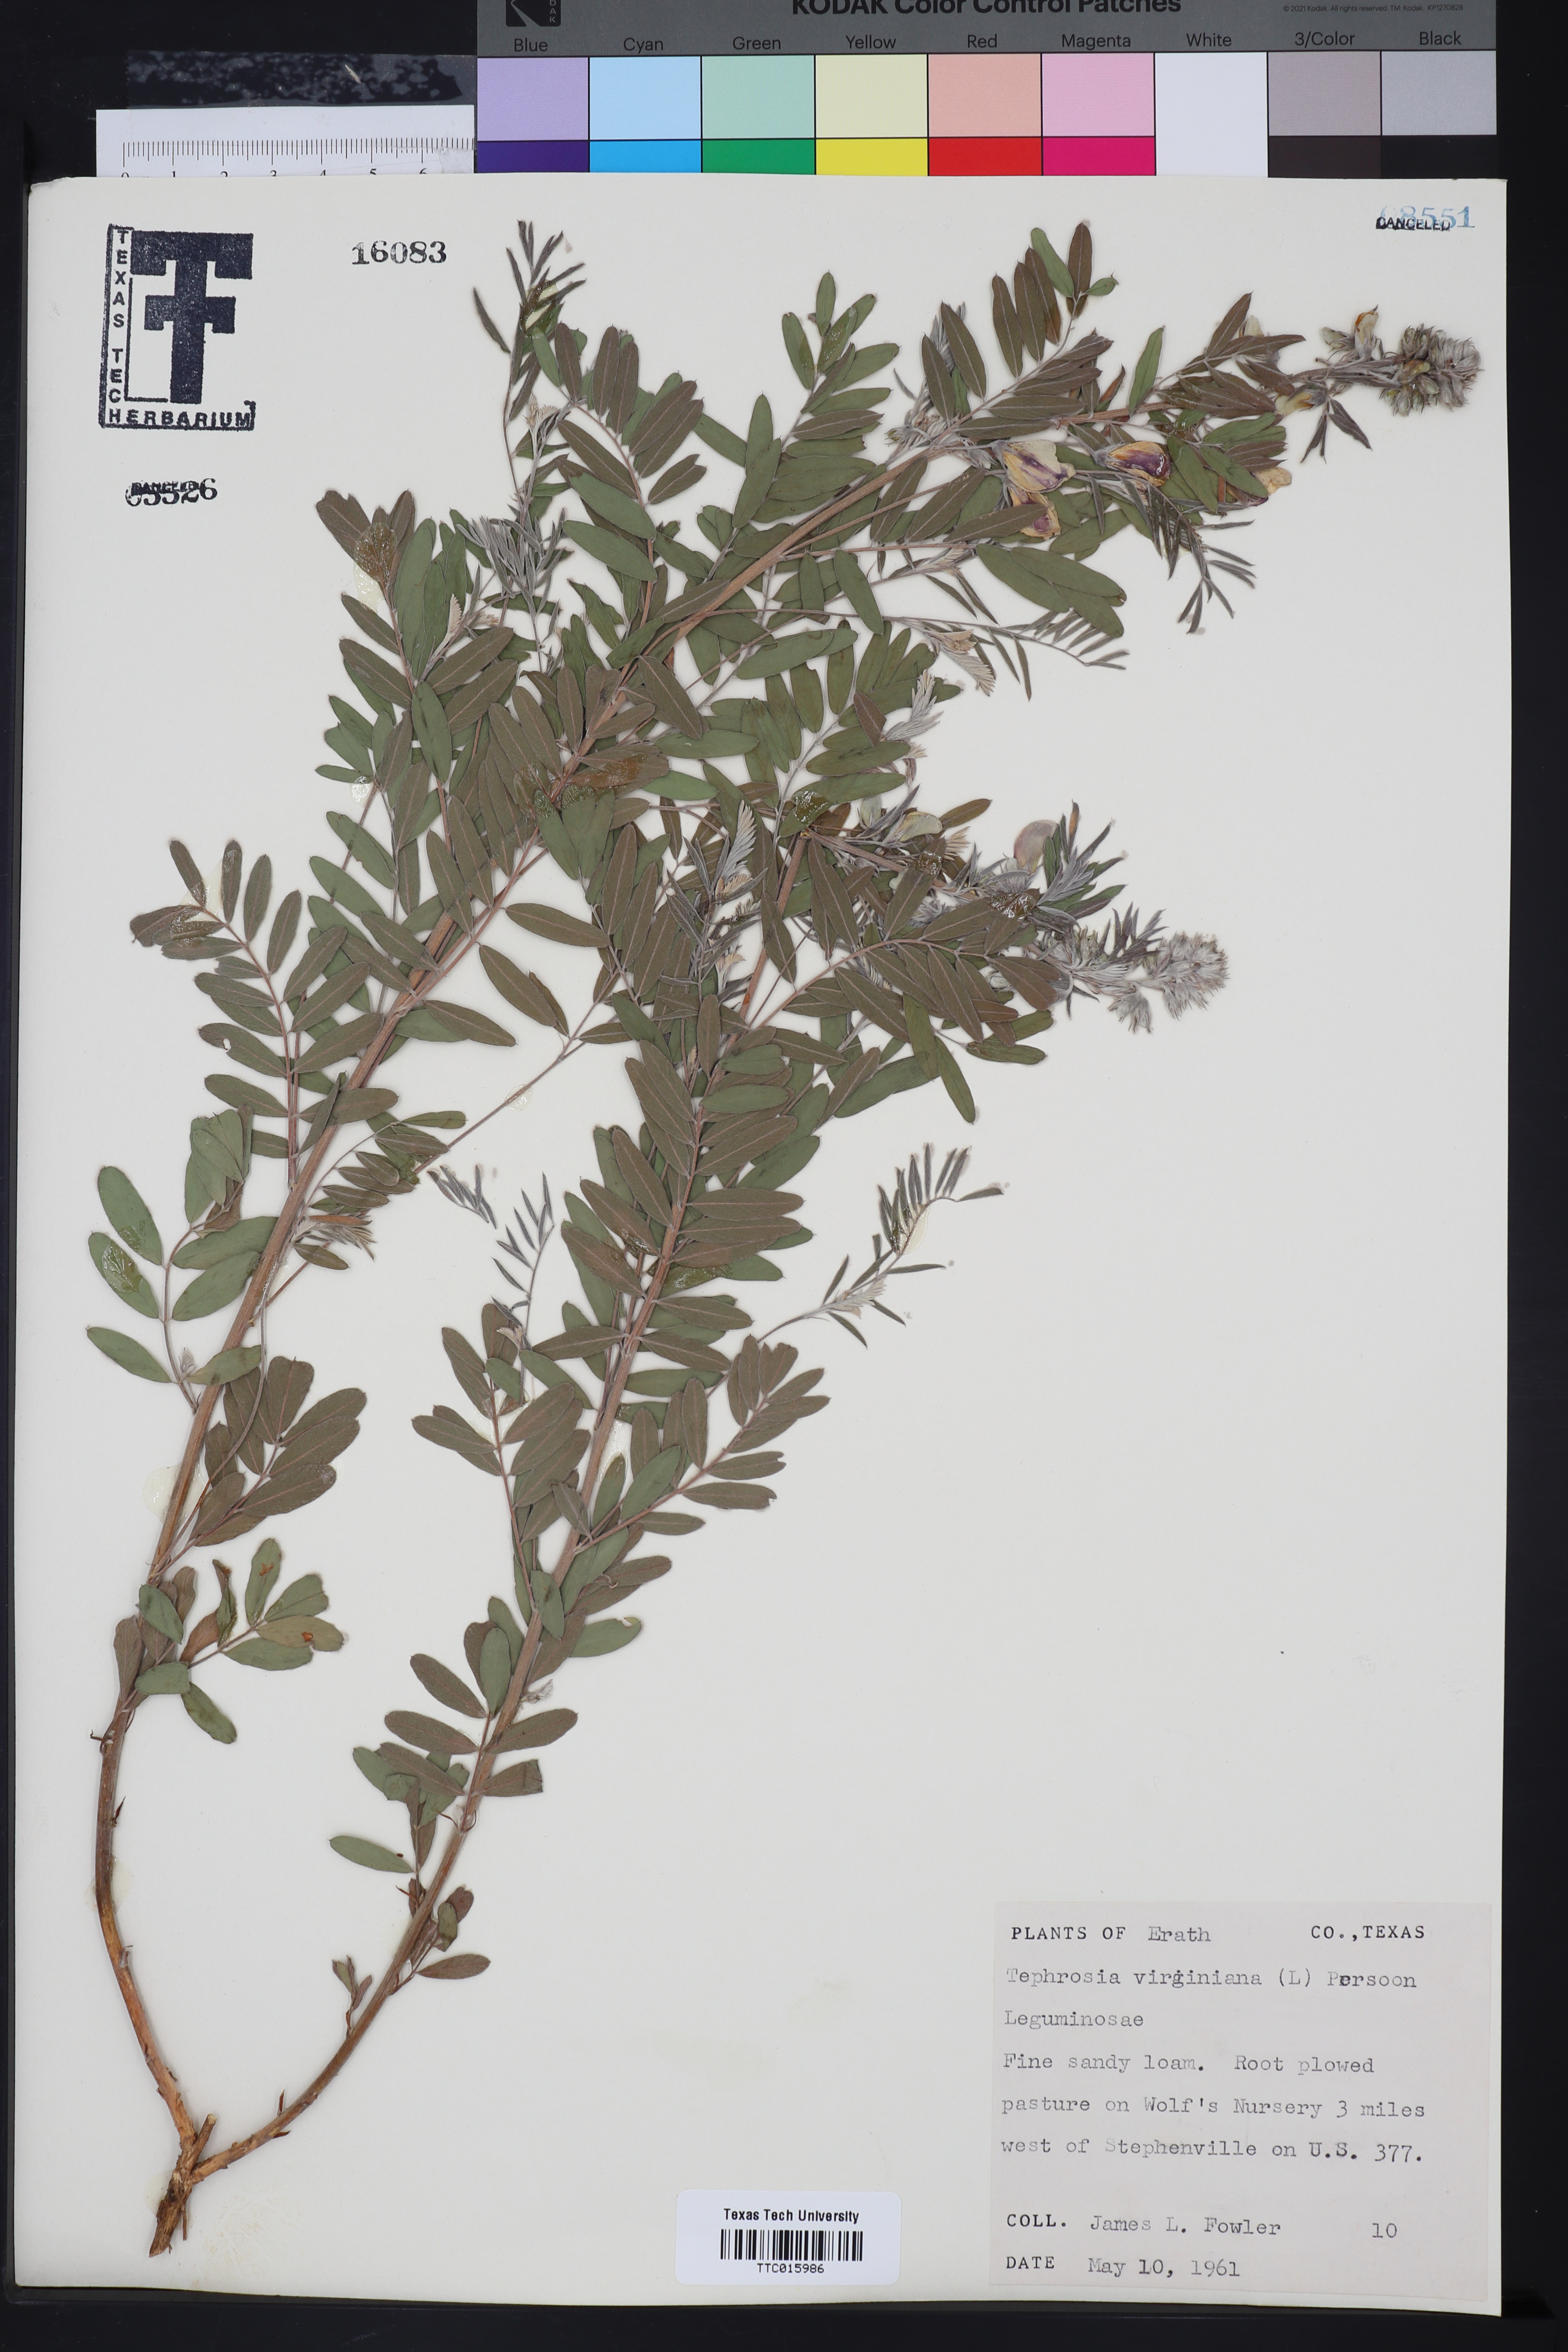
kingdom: Plantae
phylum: Tracheophyta
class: Magnoliopsida
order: Fabales
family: Fabaceae
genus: Tephrosia
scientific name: Tephrosia virginiana
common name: Rabbit-pea
